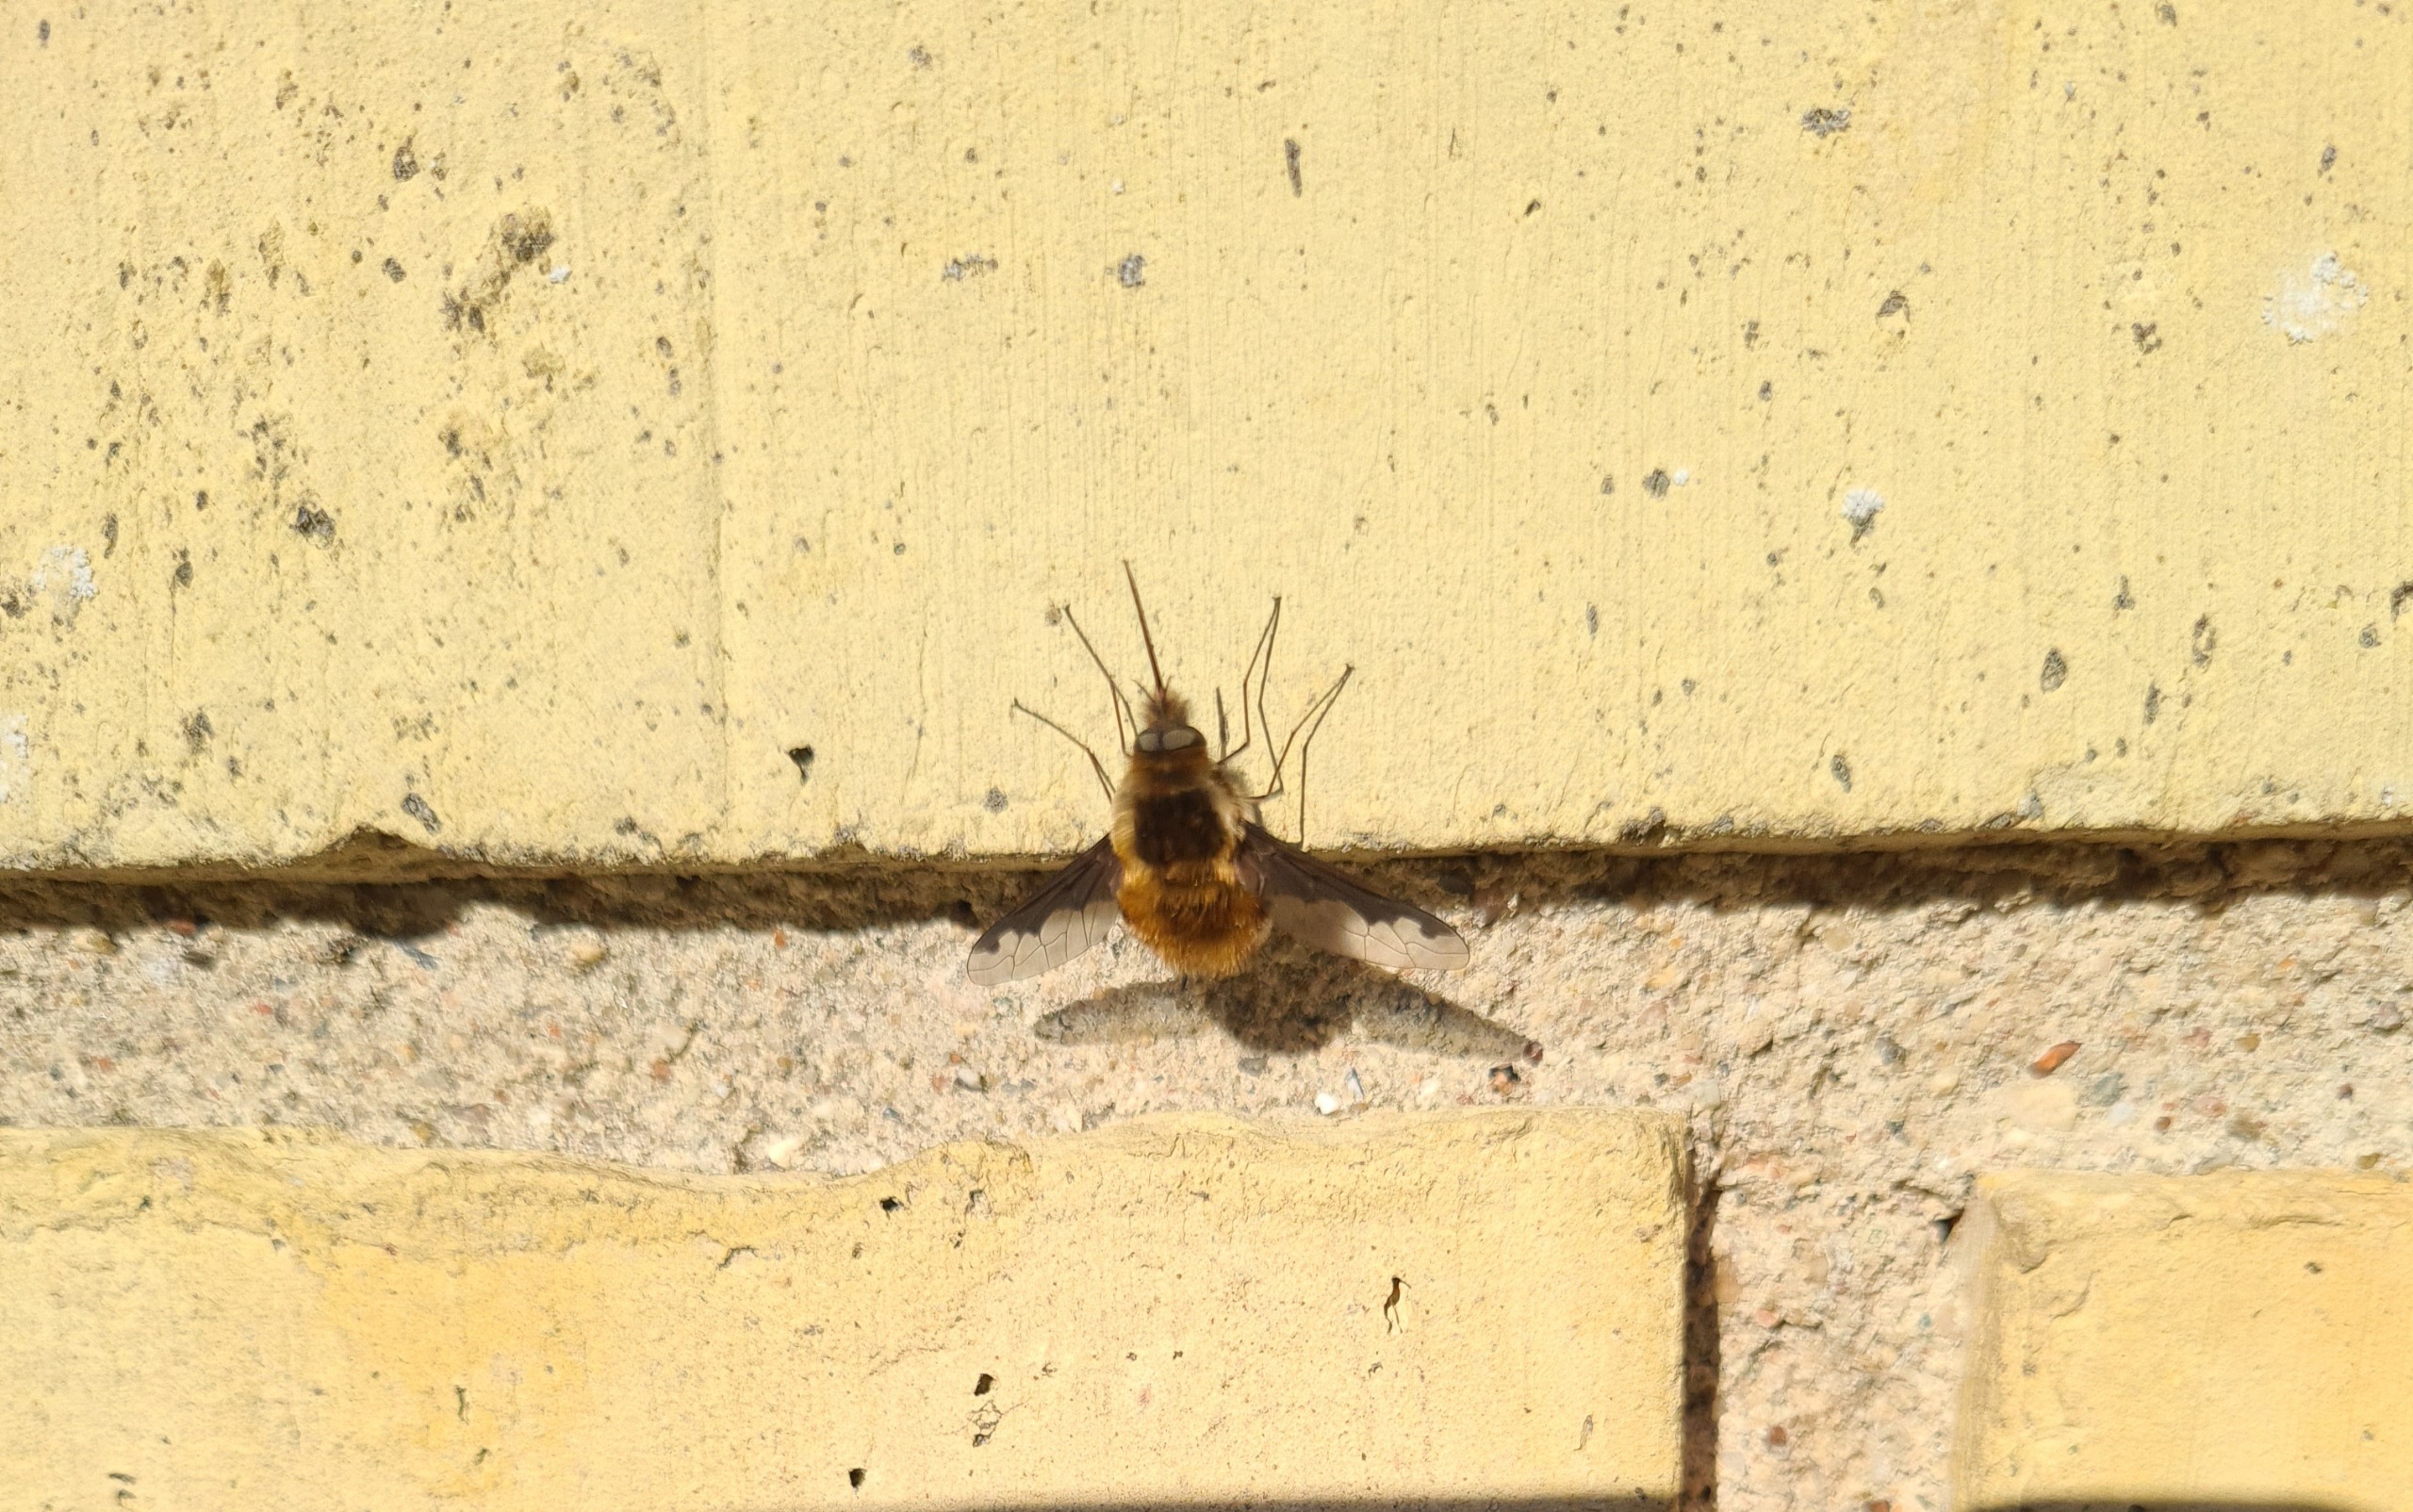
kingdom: Animalia
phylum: Arthropoda
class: Insecta
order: Diptera
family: Bombyliidae
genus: Bombylius
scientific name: Bombylius major
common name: Stor humleflue
